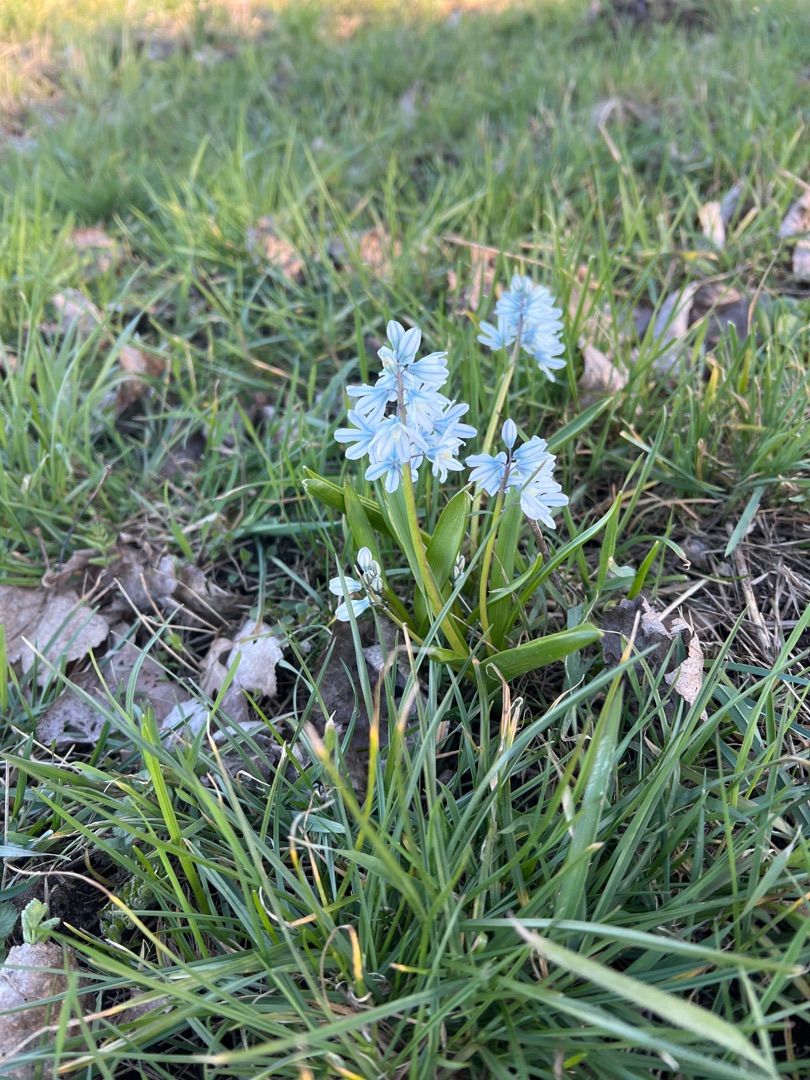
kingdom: Plantae
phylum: Tracheophyta
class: Liliopsida
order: Asparagales
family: Asparagaceae
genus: Puschkinia
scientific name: Puschkinia scilloides
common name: Porcelænshyacint
